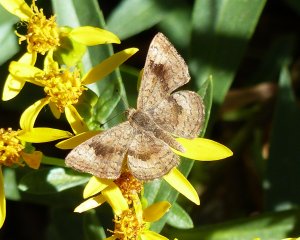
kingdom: Animalia
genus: Calephelis
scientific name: Calephelis nemesis
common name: Fatal Metalmark
